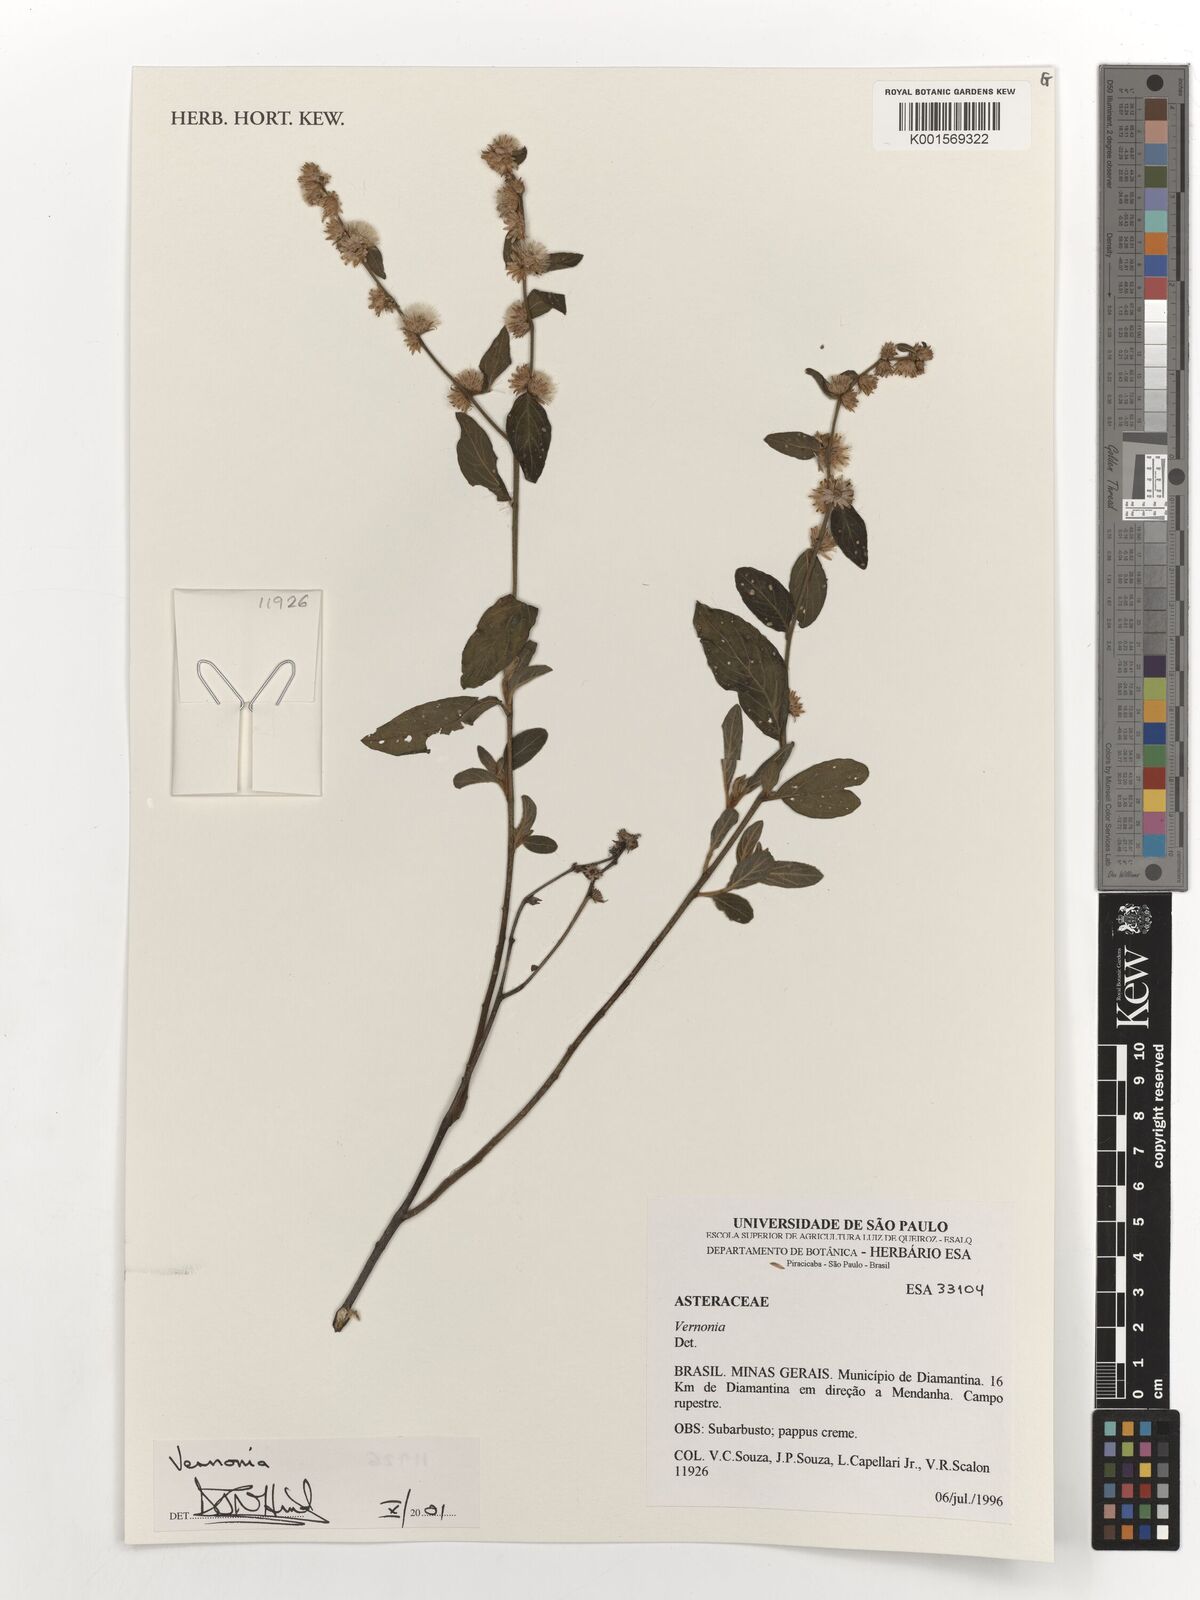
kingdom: Plantae
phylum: Tracheophyta
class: Magnoliopsida
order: Asterales
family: Asteraceae
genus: Vernonia
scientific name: Vernonia
